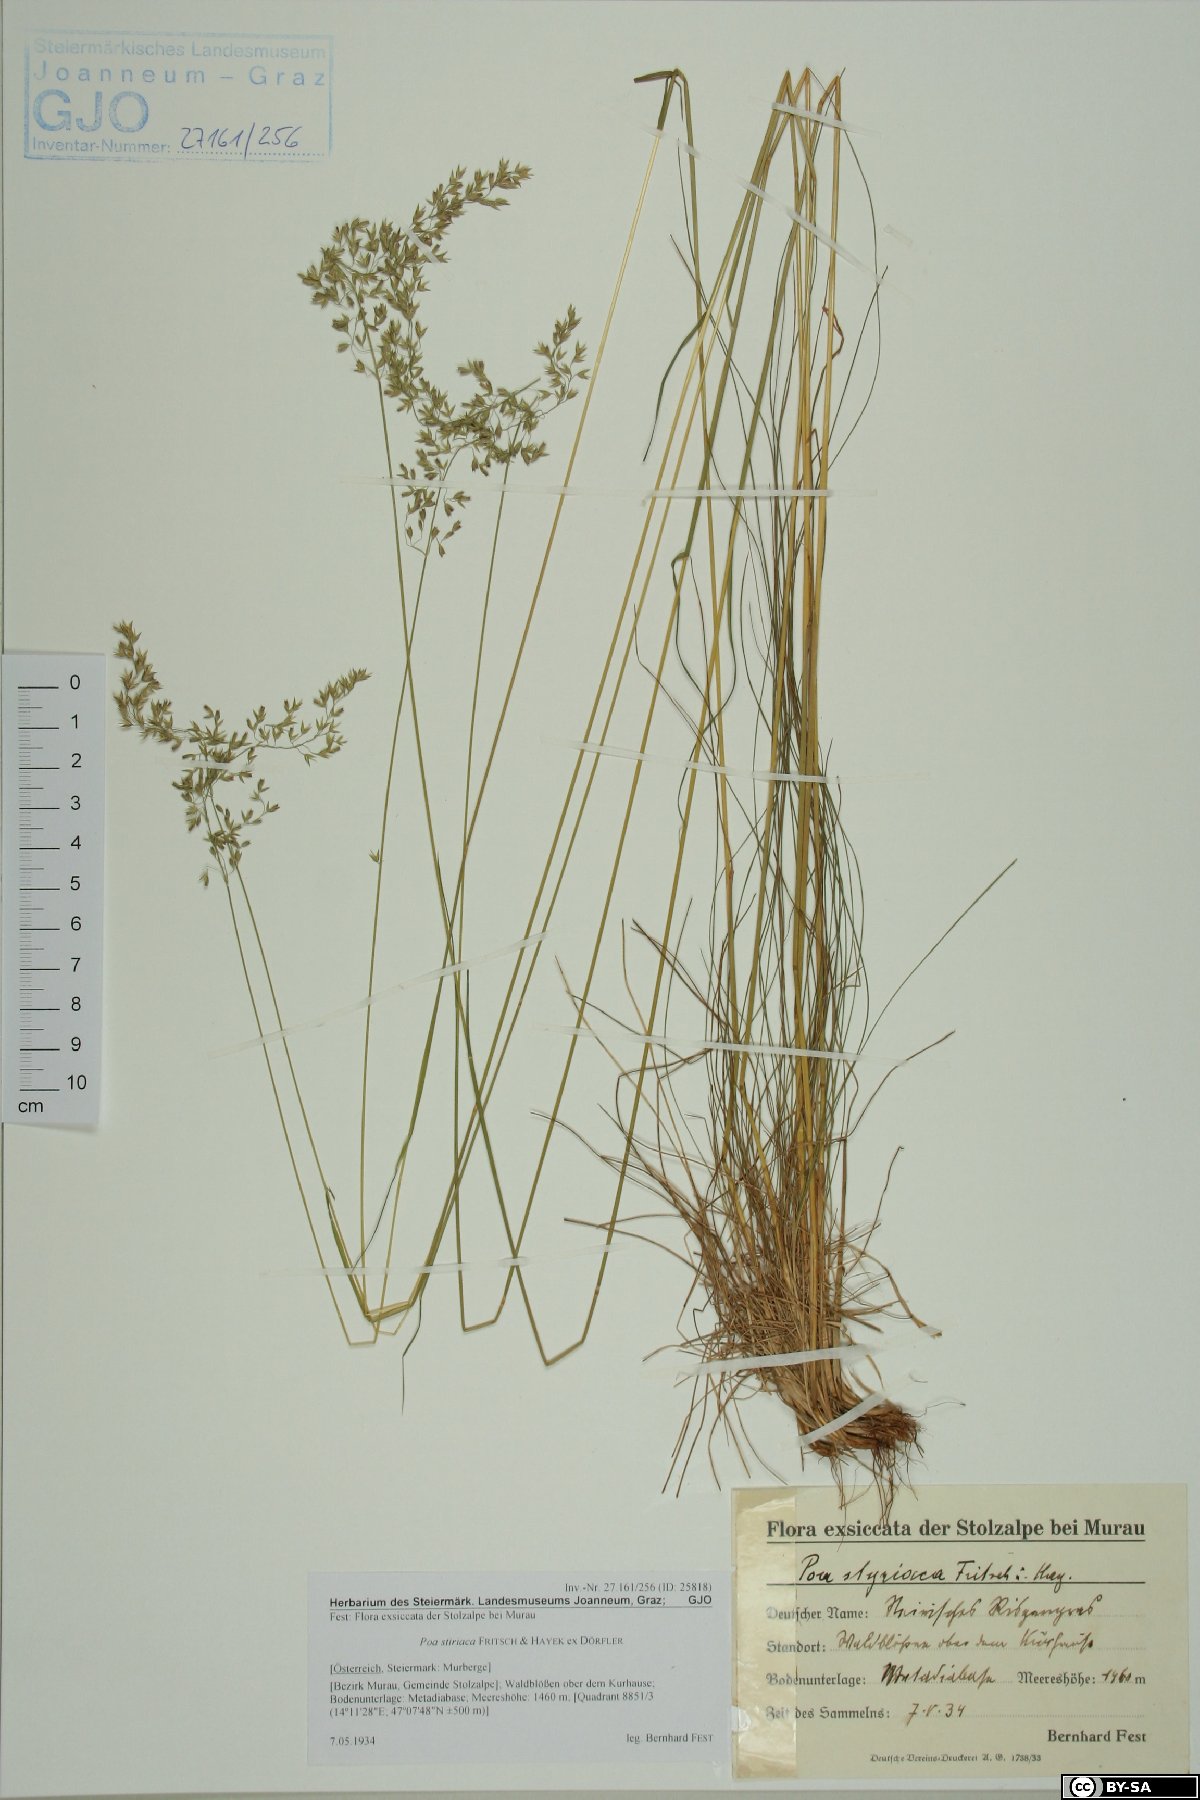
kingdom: Plantae
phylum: Tracheophyta
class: Liliopsida
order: Poales
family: Poaceae
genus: Poa
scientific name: Poa stiriaca
